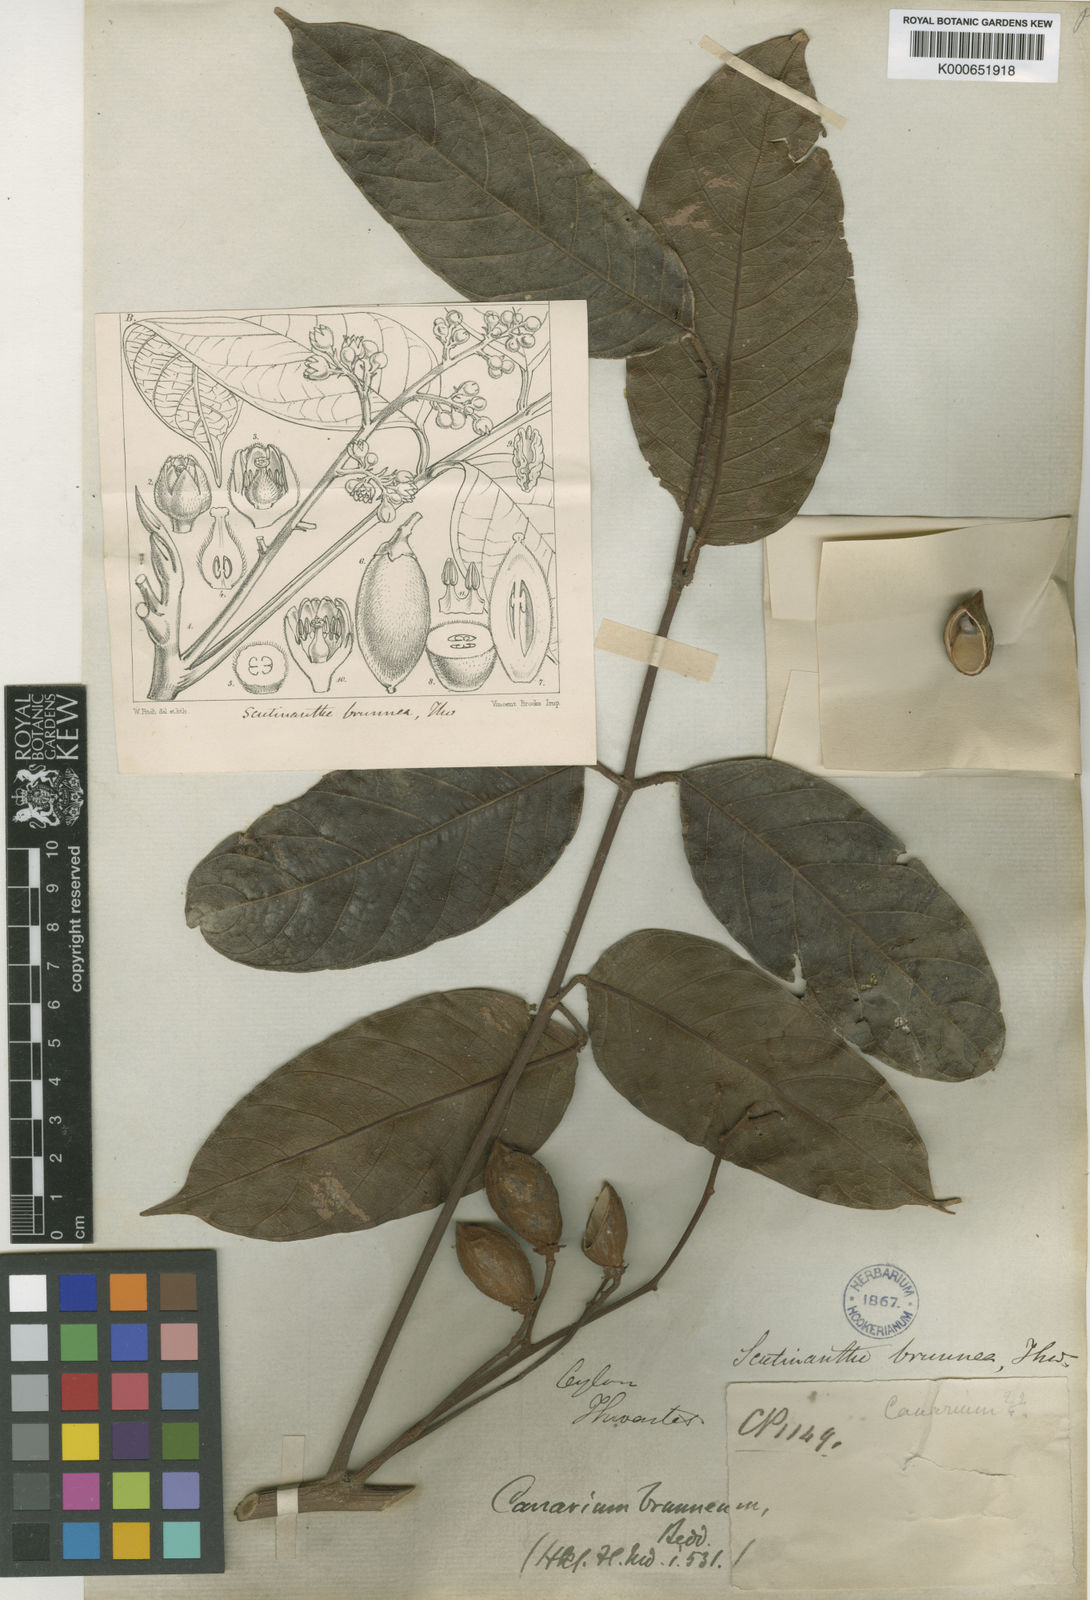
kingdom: Plantae
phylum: Tracheophyta
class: Magnoliopsida
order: Sapindales
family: Burseraceae
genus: Scutinanthe
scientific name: Scutinanthe brunnea
